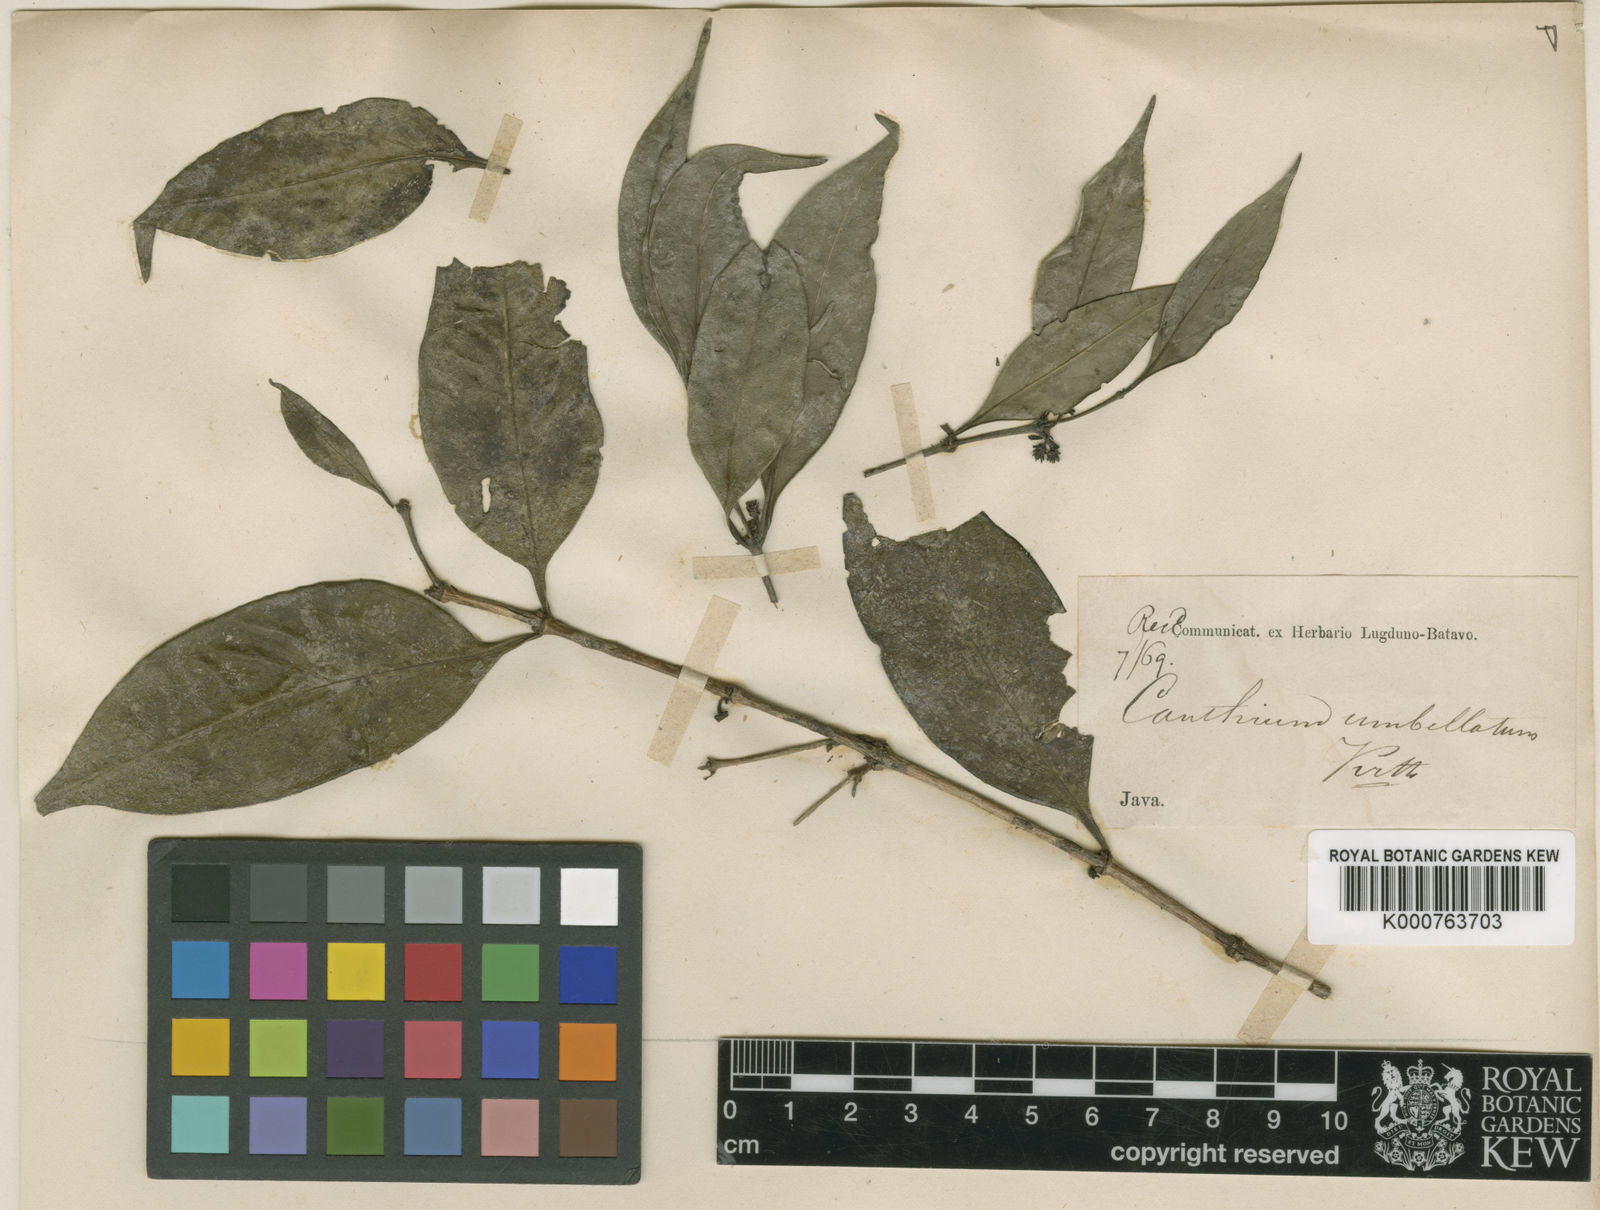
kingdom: Plantae
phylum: Tracheophyta
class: Magnoliopsida
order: Gentianales
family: Rubiaceae
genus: Psydrax
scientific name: Psydrax umbellatus
